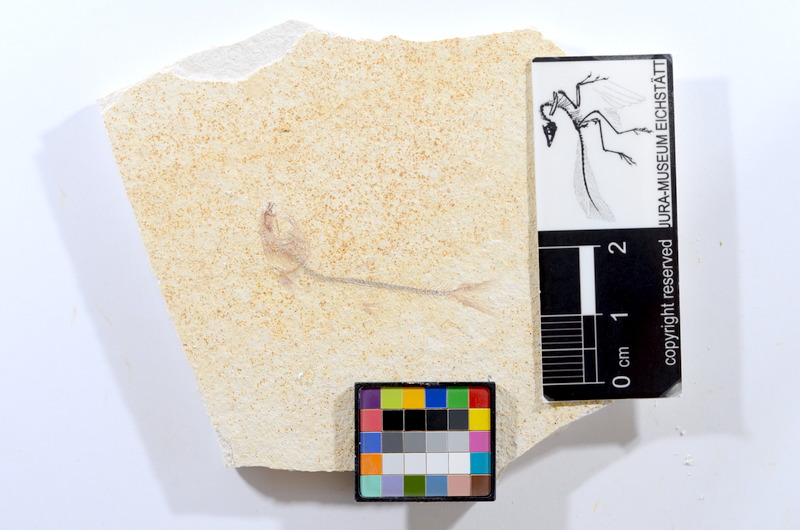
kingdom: Animalia
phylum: Chordata
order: Salmoniformes
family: Orthogonikleithridae
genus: Orthogonikleithrus
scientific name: Orthogonikleithrus hoelli
